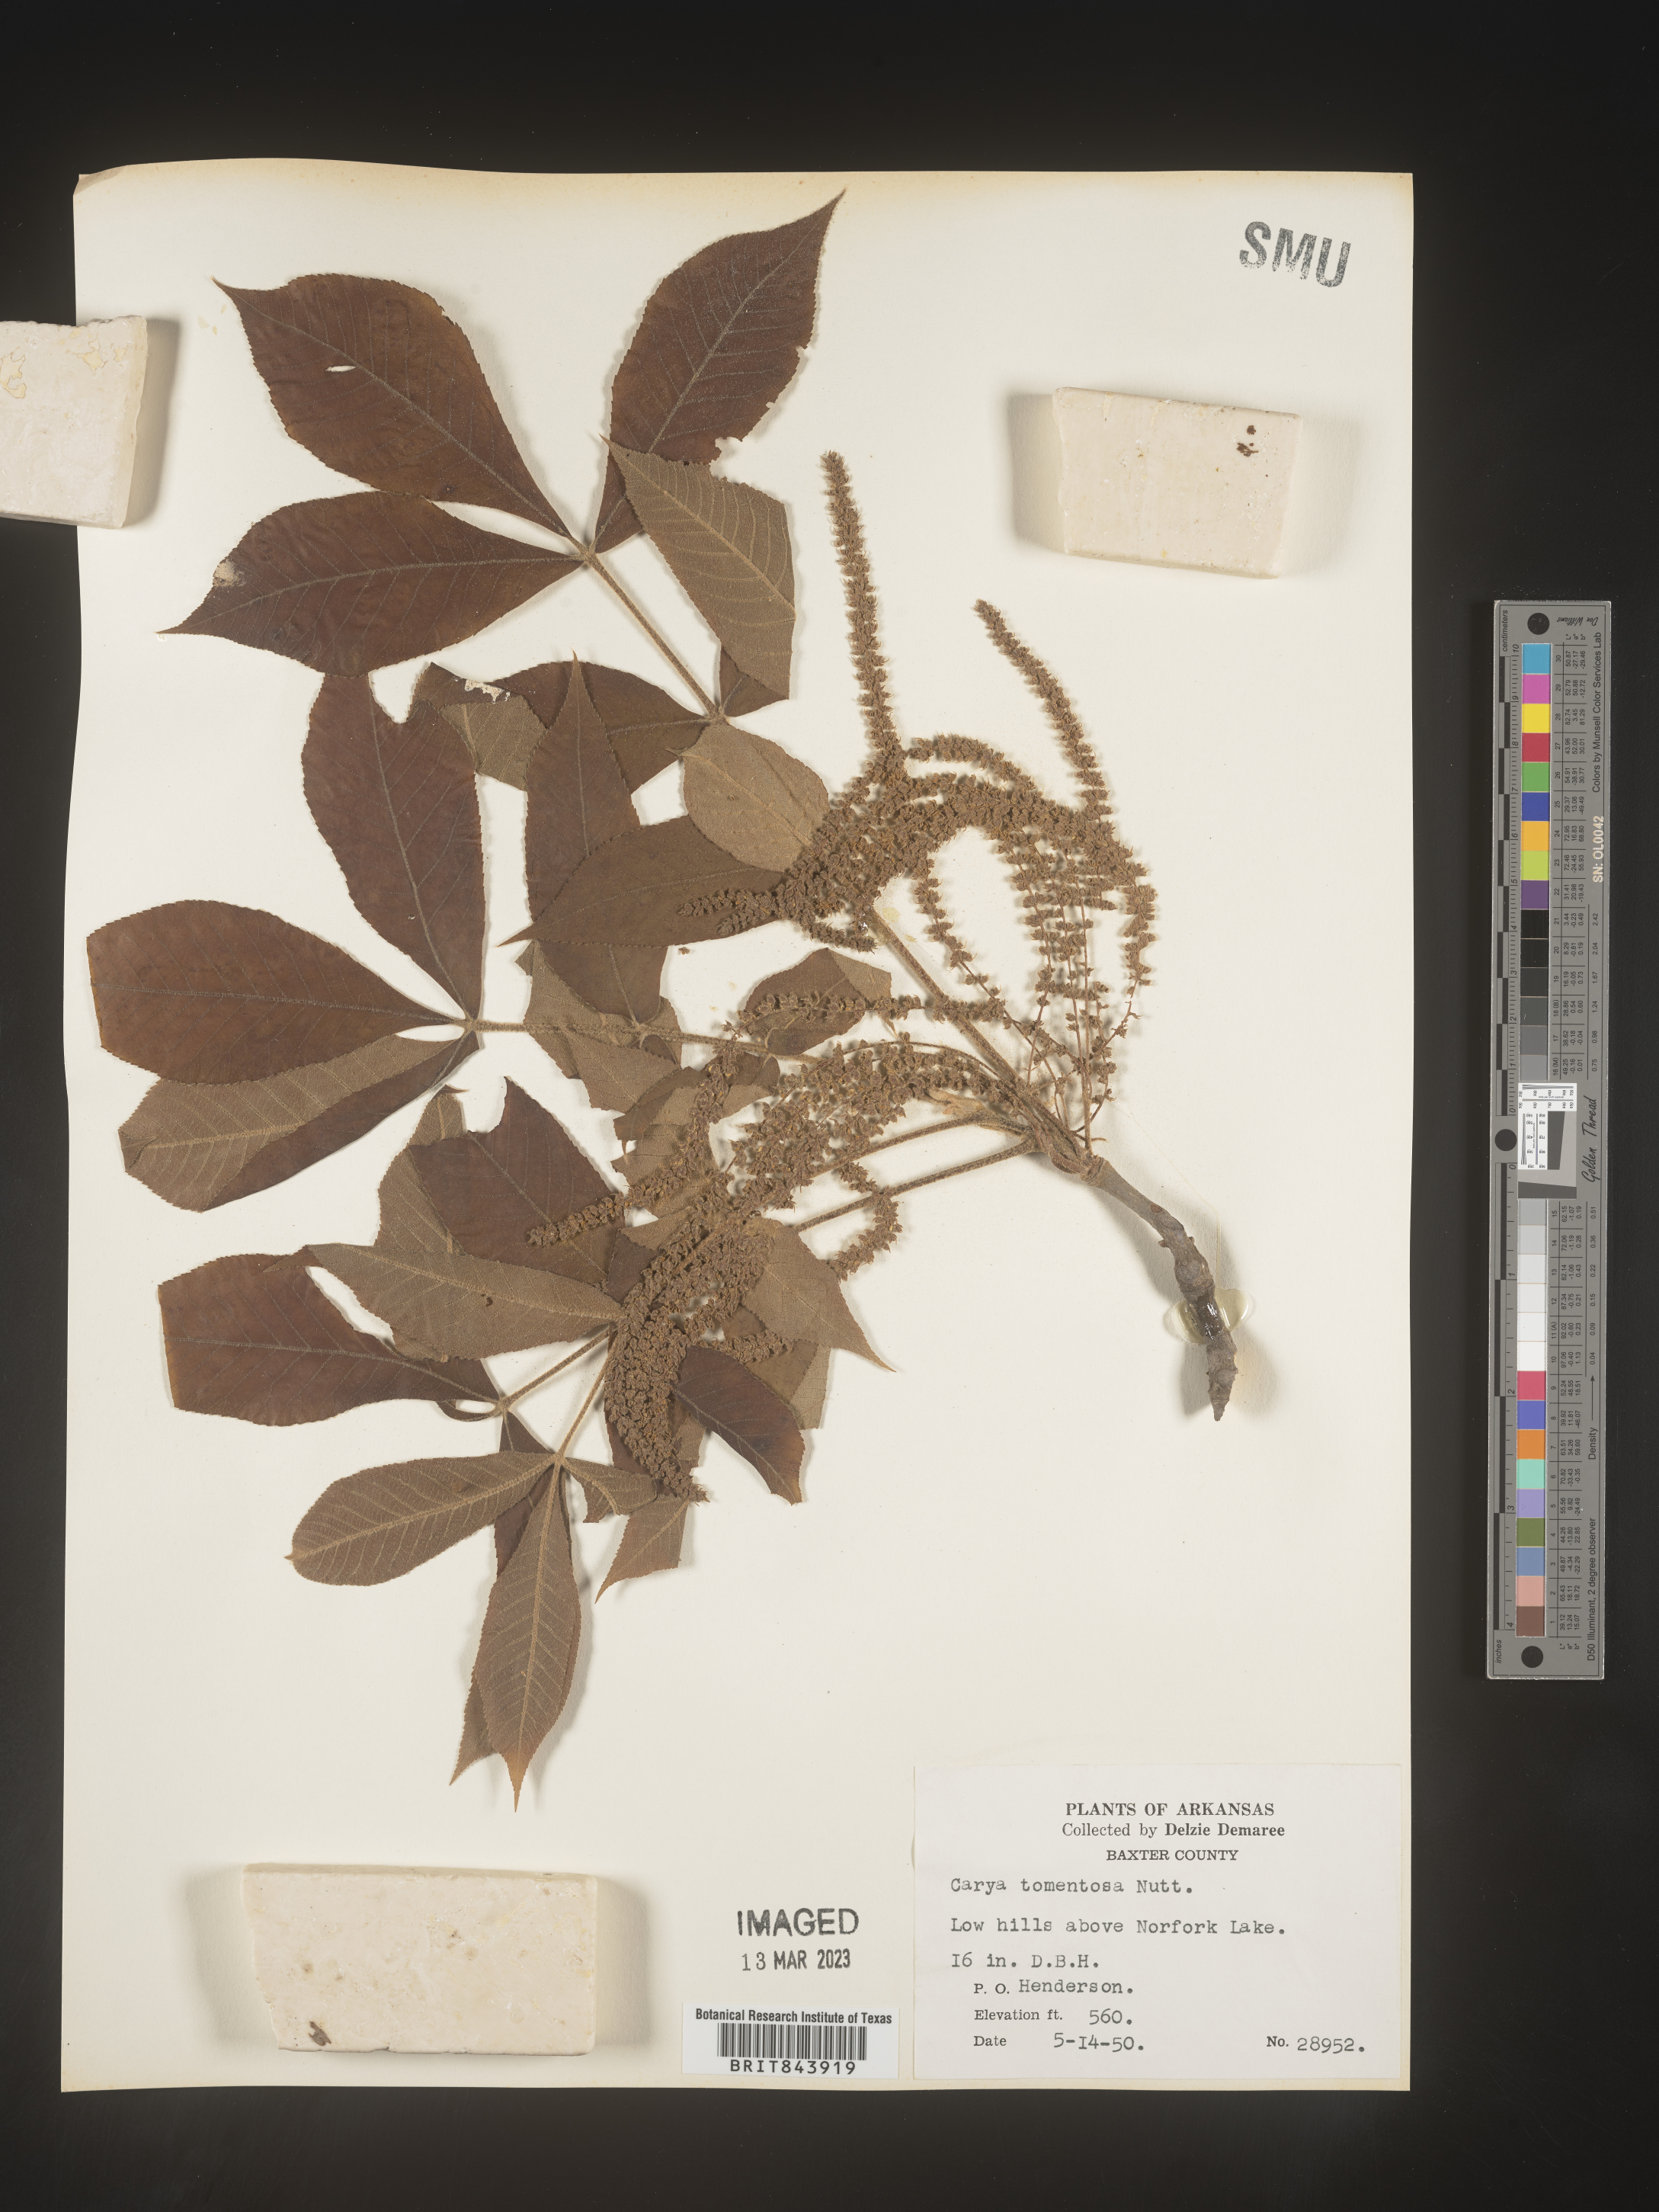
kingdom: Plantae
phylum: Tracheophyta
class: Magnoliopsida
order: Fagales
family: Juglandaceae
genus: Carya
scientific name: Carya alba
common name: Mockernut hickory
